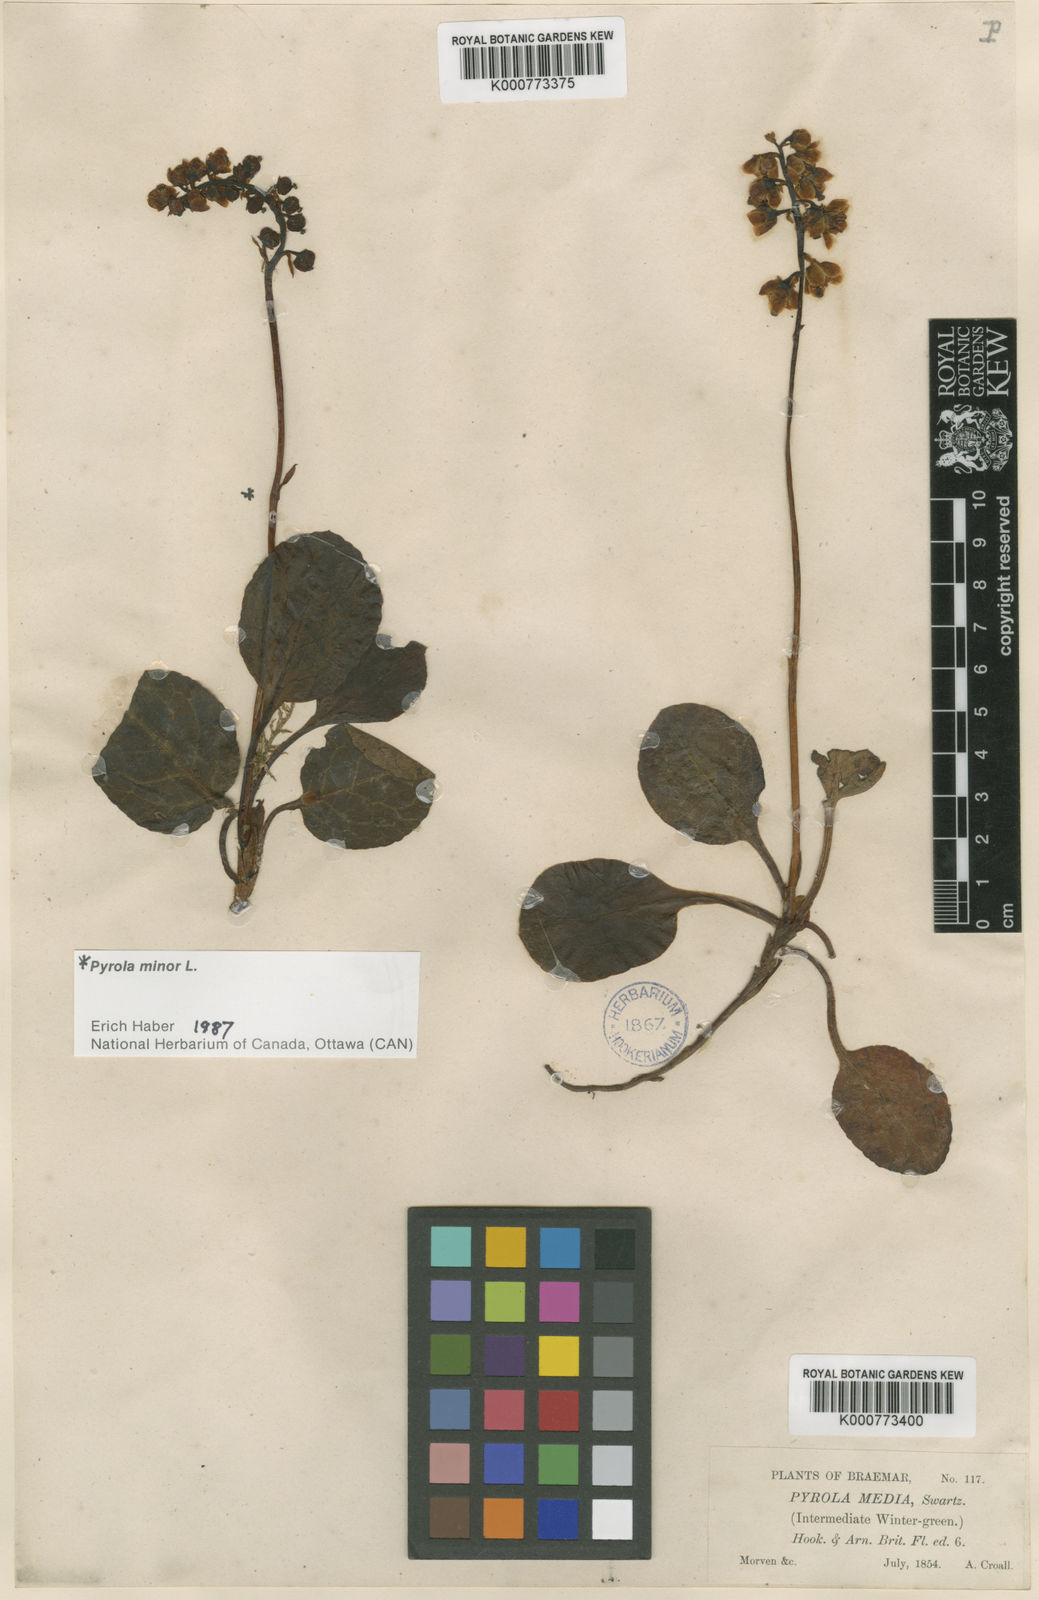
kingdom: Plantae
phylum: Tracheophyta
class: Magnoliopsida
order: Ericales
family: Ericaceae
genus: Pyrola
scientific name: Pyrola media
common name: Intermediate wintergreen
